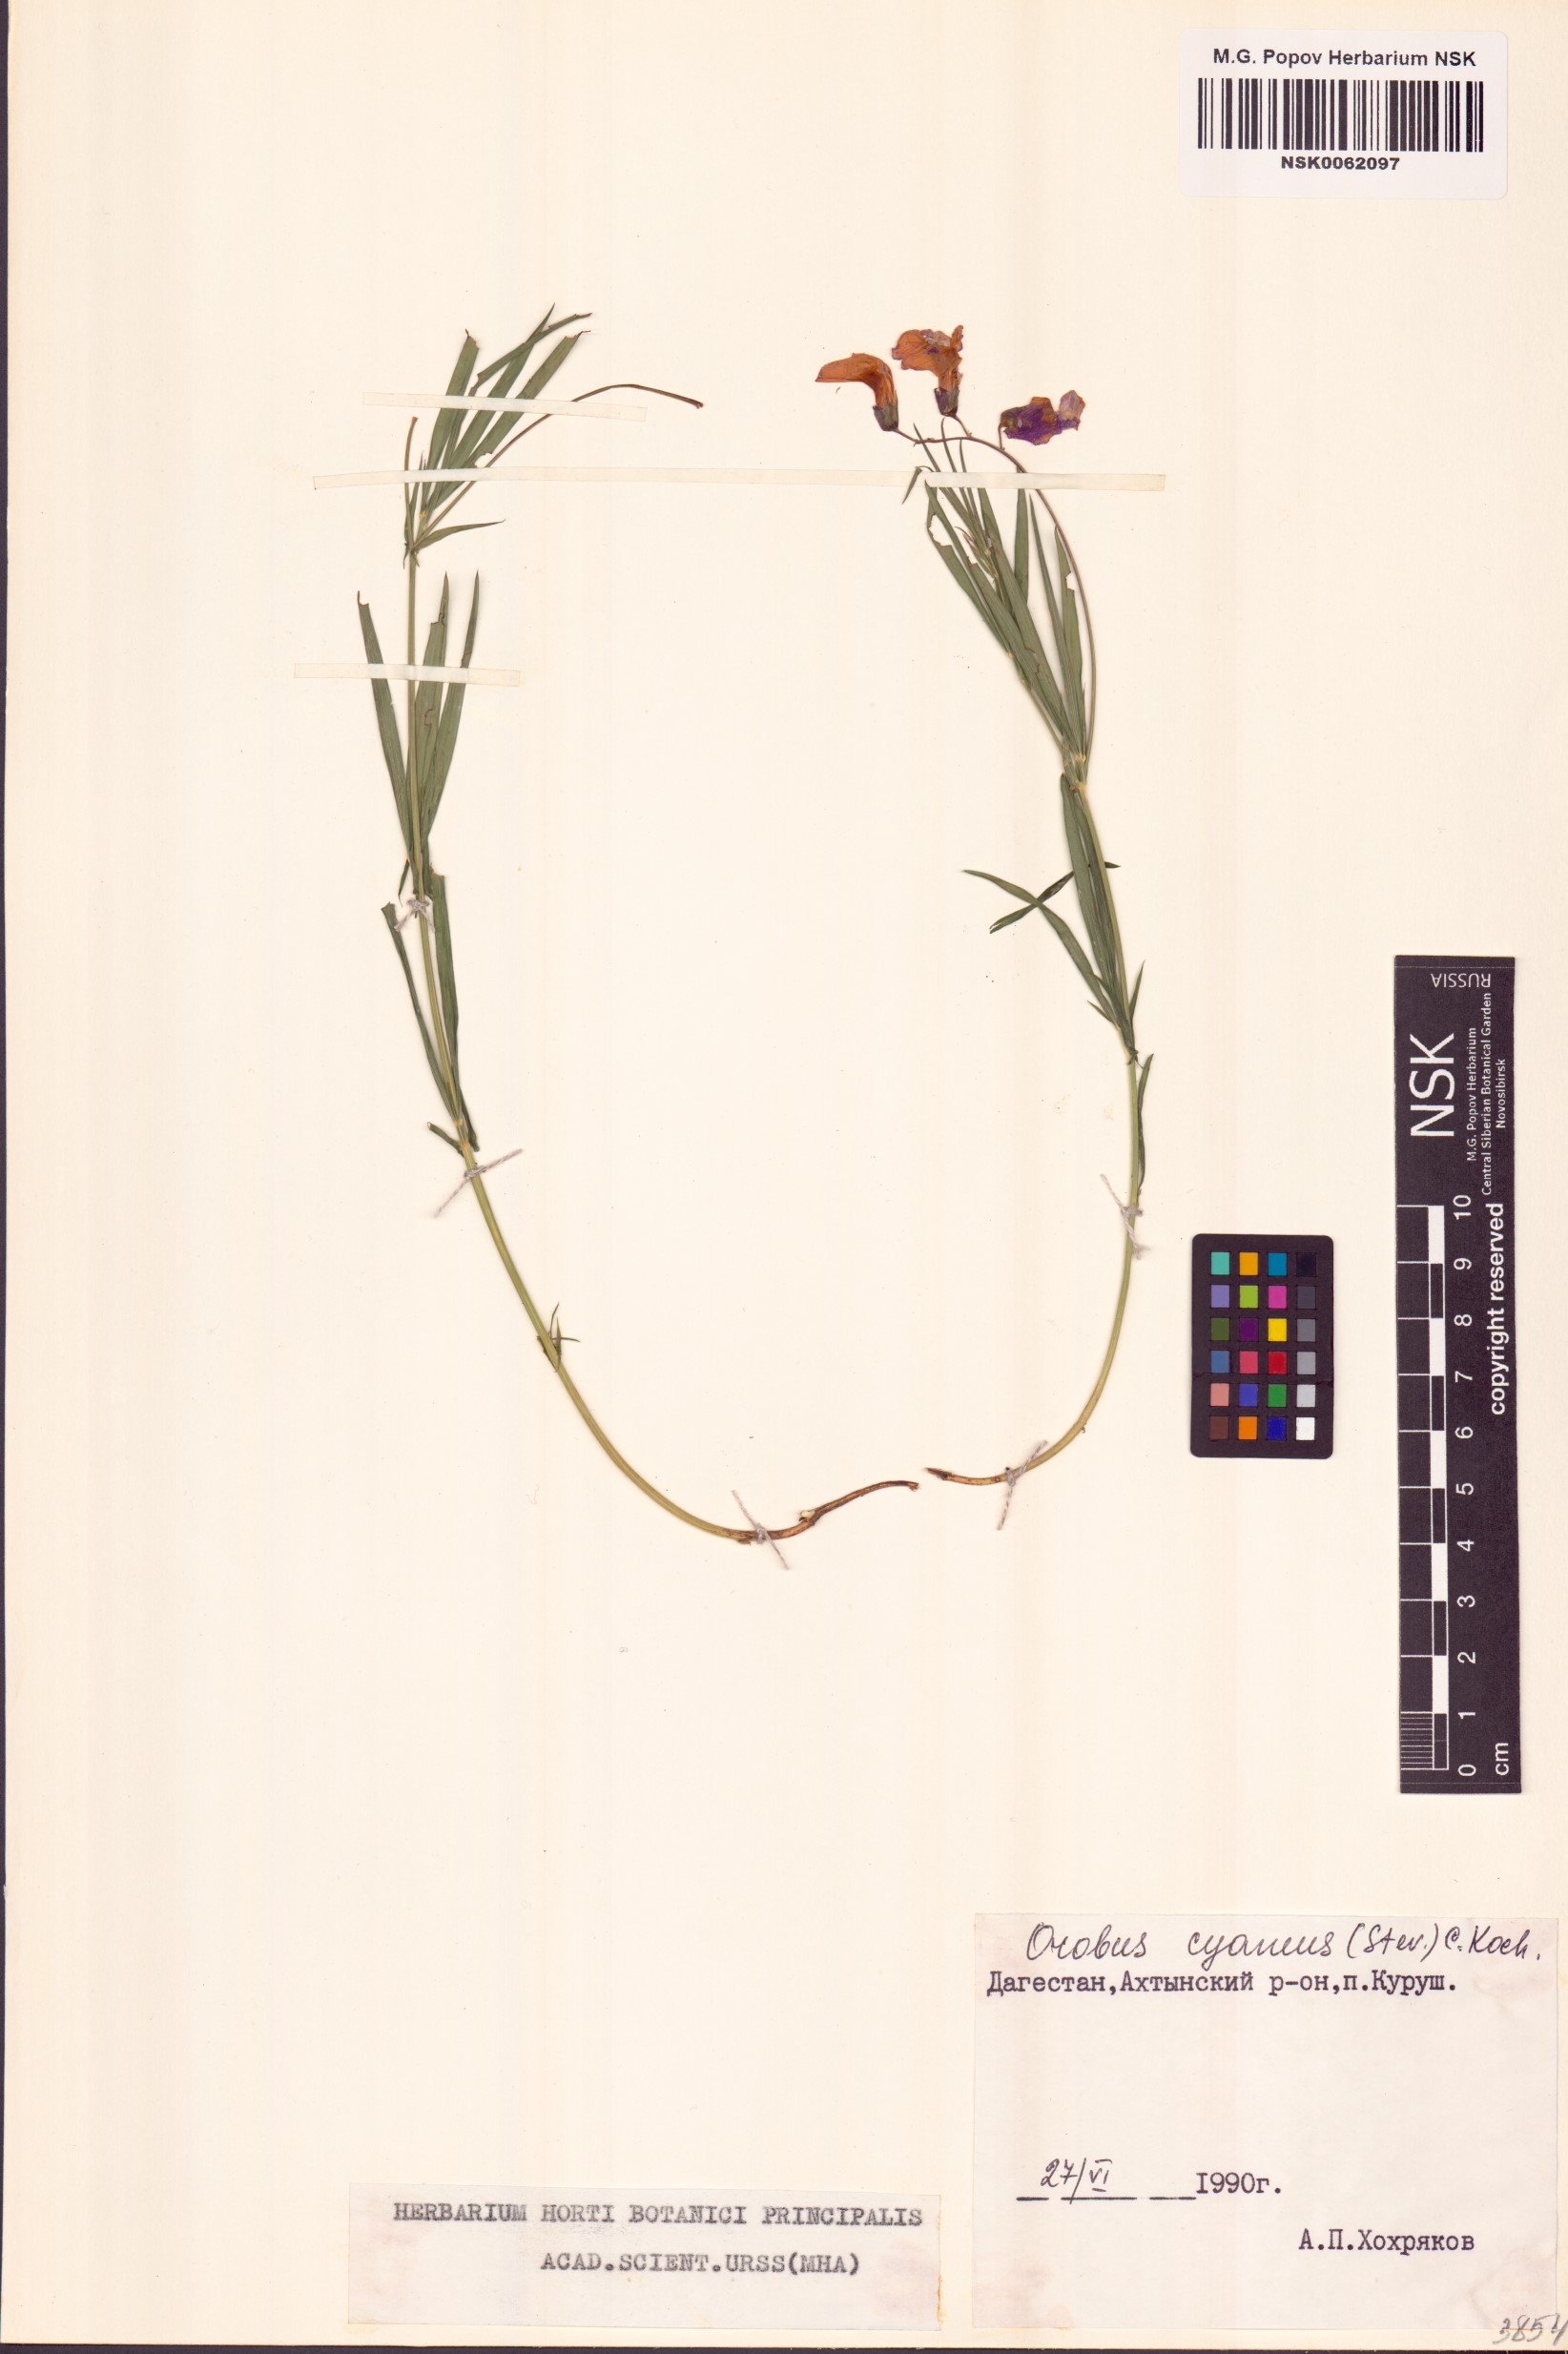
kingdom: Plantae
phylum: Tracheophyta
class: Magnoliopsida
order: Fabales
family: Fabaceae
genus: Lathyrus
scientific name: Lathyrus cyaneus
